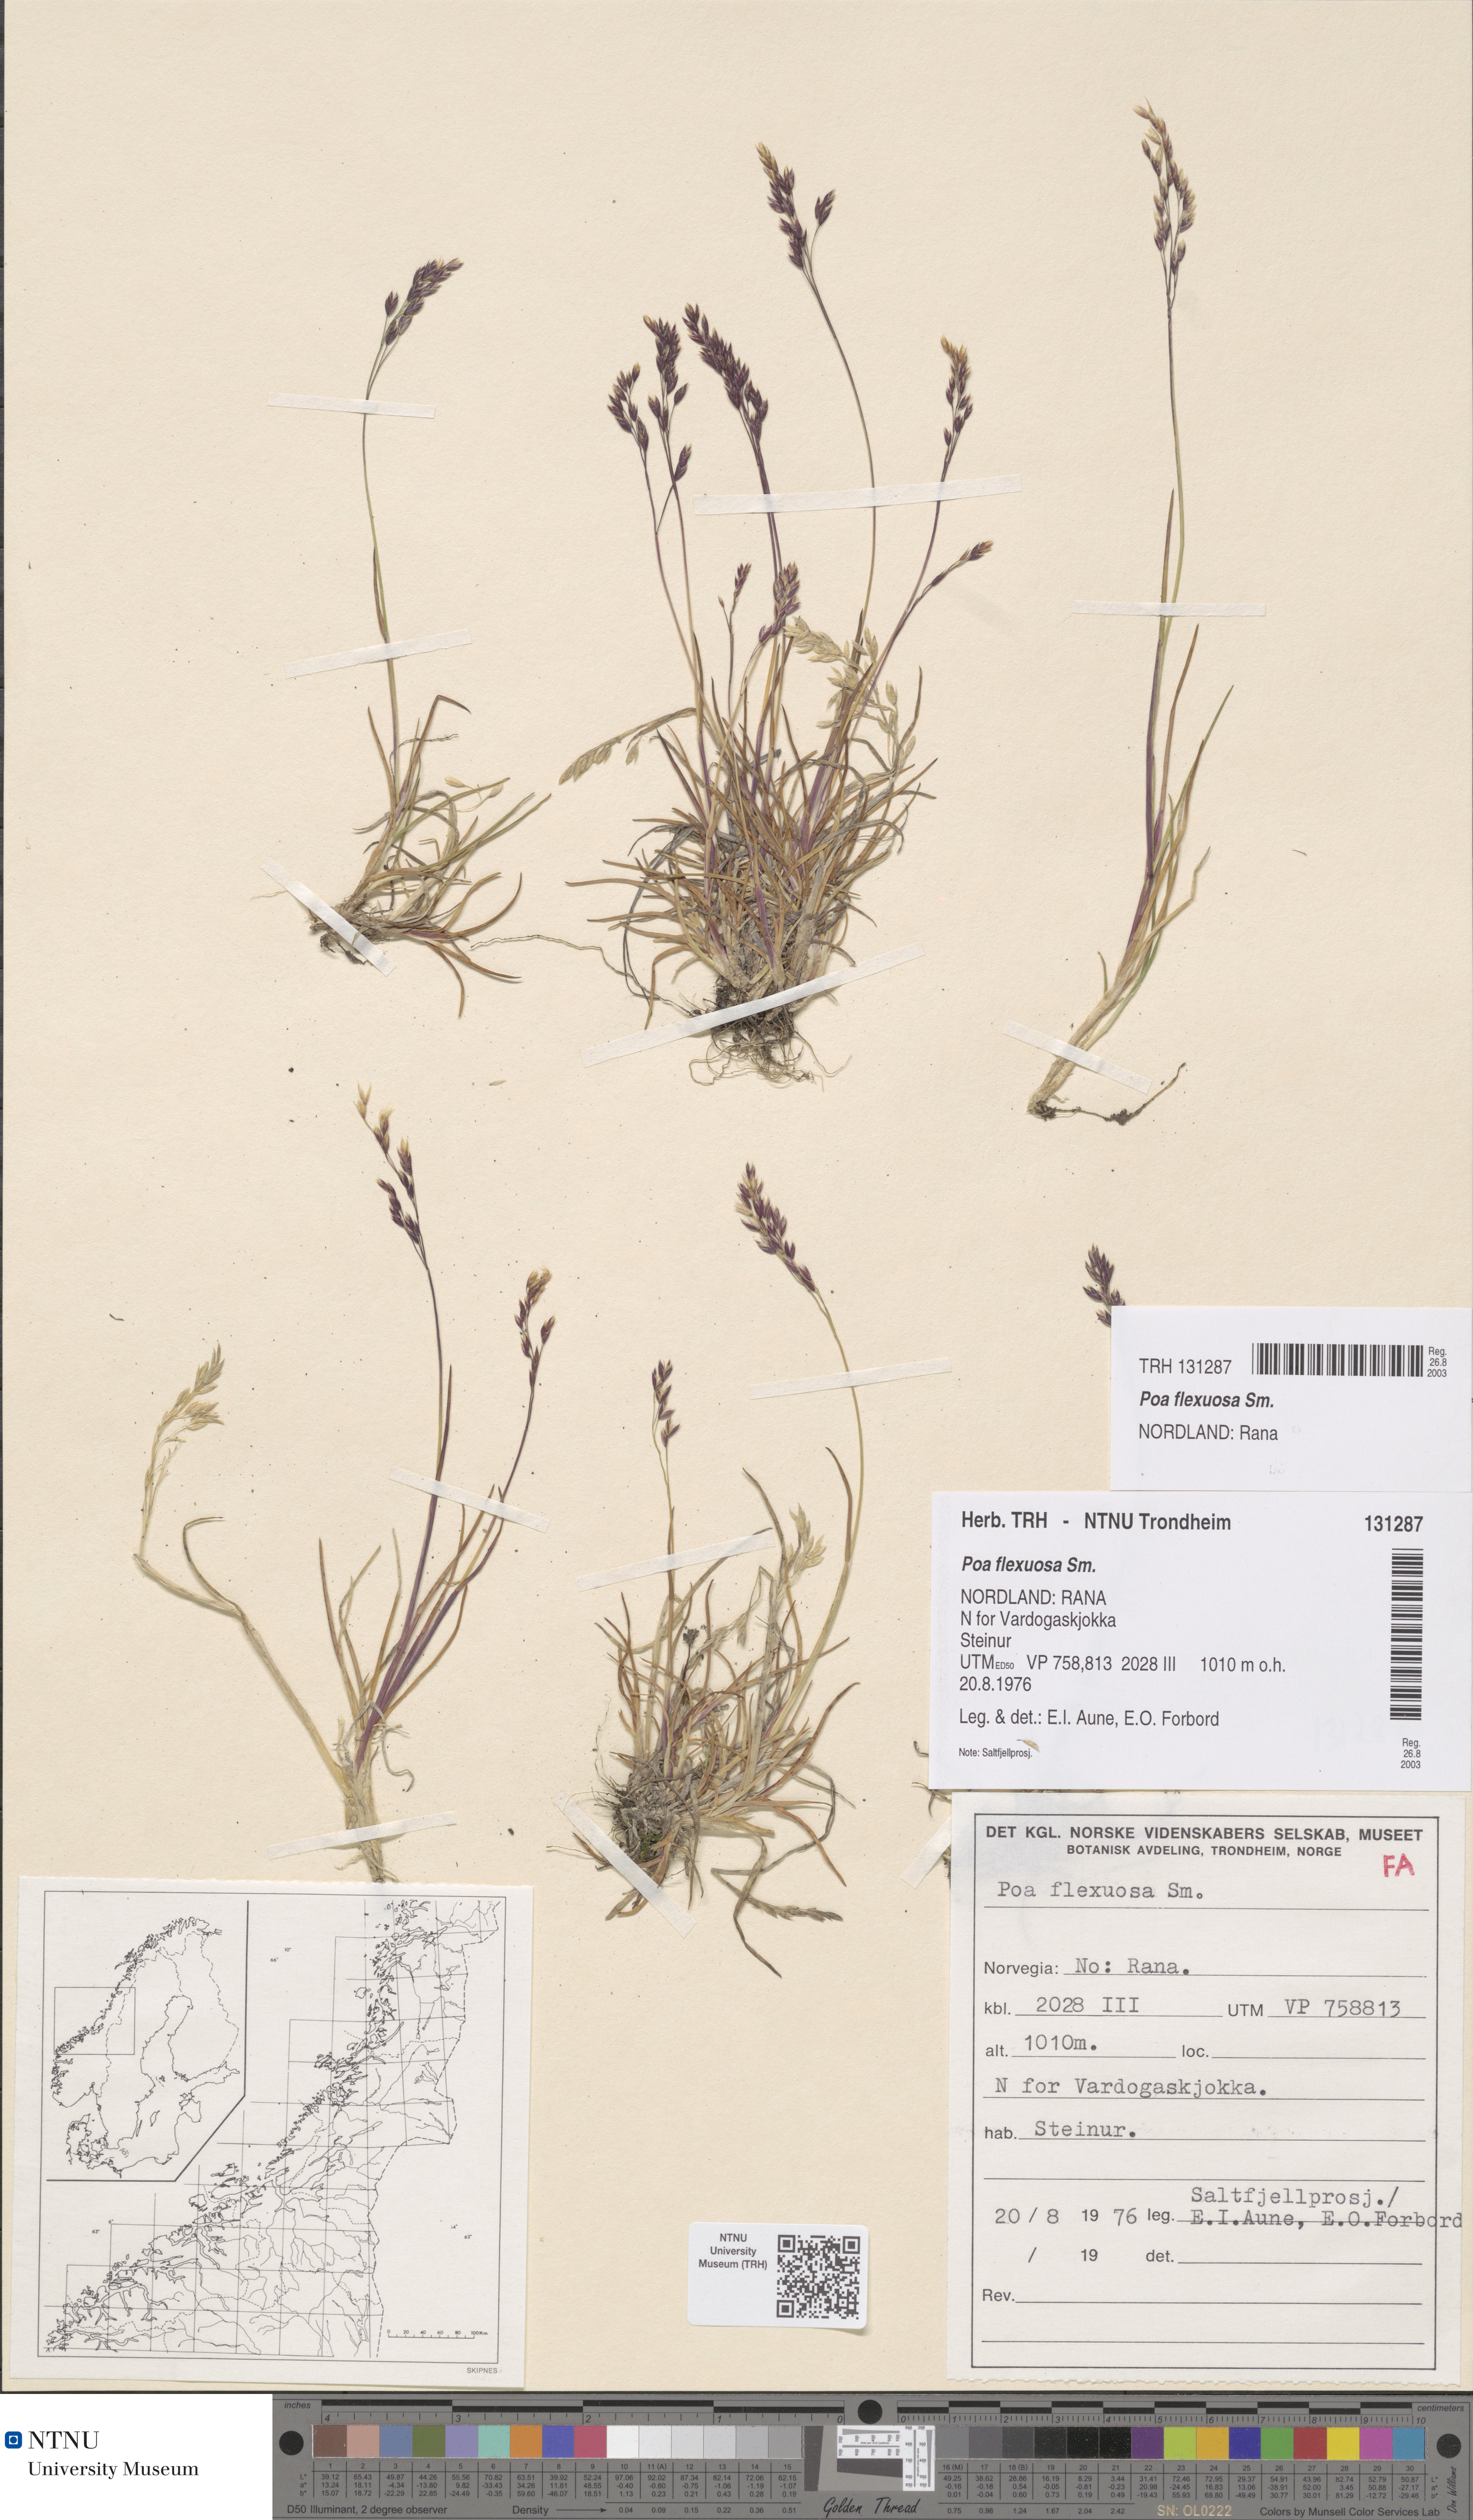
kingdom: Plantae
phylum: Tracheophyta
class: Liliopsida
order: Poales
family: Poaceae
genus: Poa
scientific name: Poa flexuosa
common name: Wavy meadow-grass
